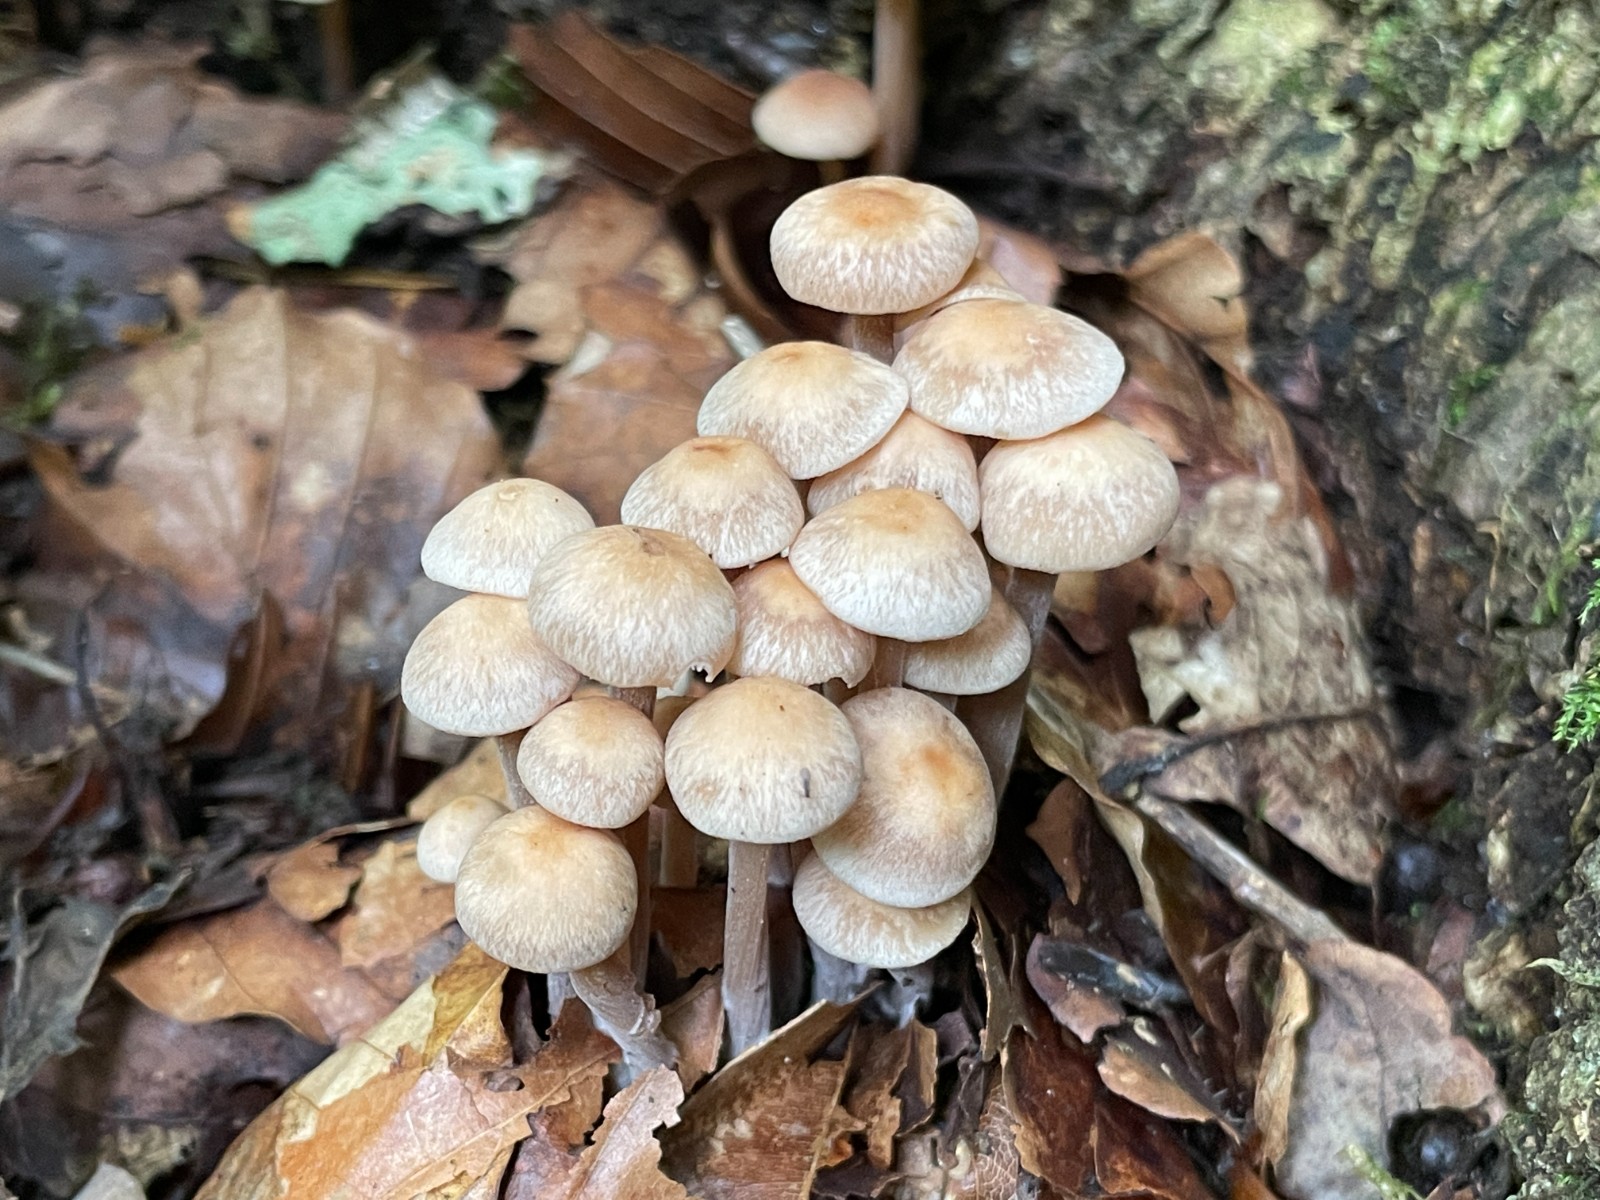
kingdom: Fungi
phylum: Basidiomycota
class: Agaricomycetes
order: Agaricales
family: Omphalotaceae
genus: Collybiopsis
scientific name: Collybiopsis confluens
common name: knippe-fladhat
